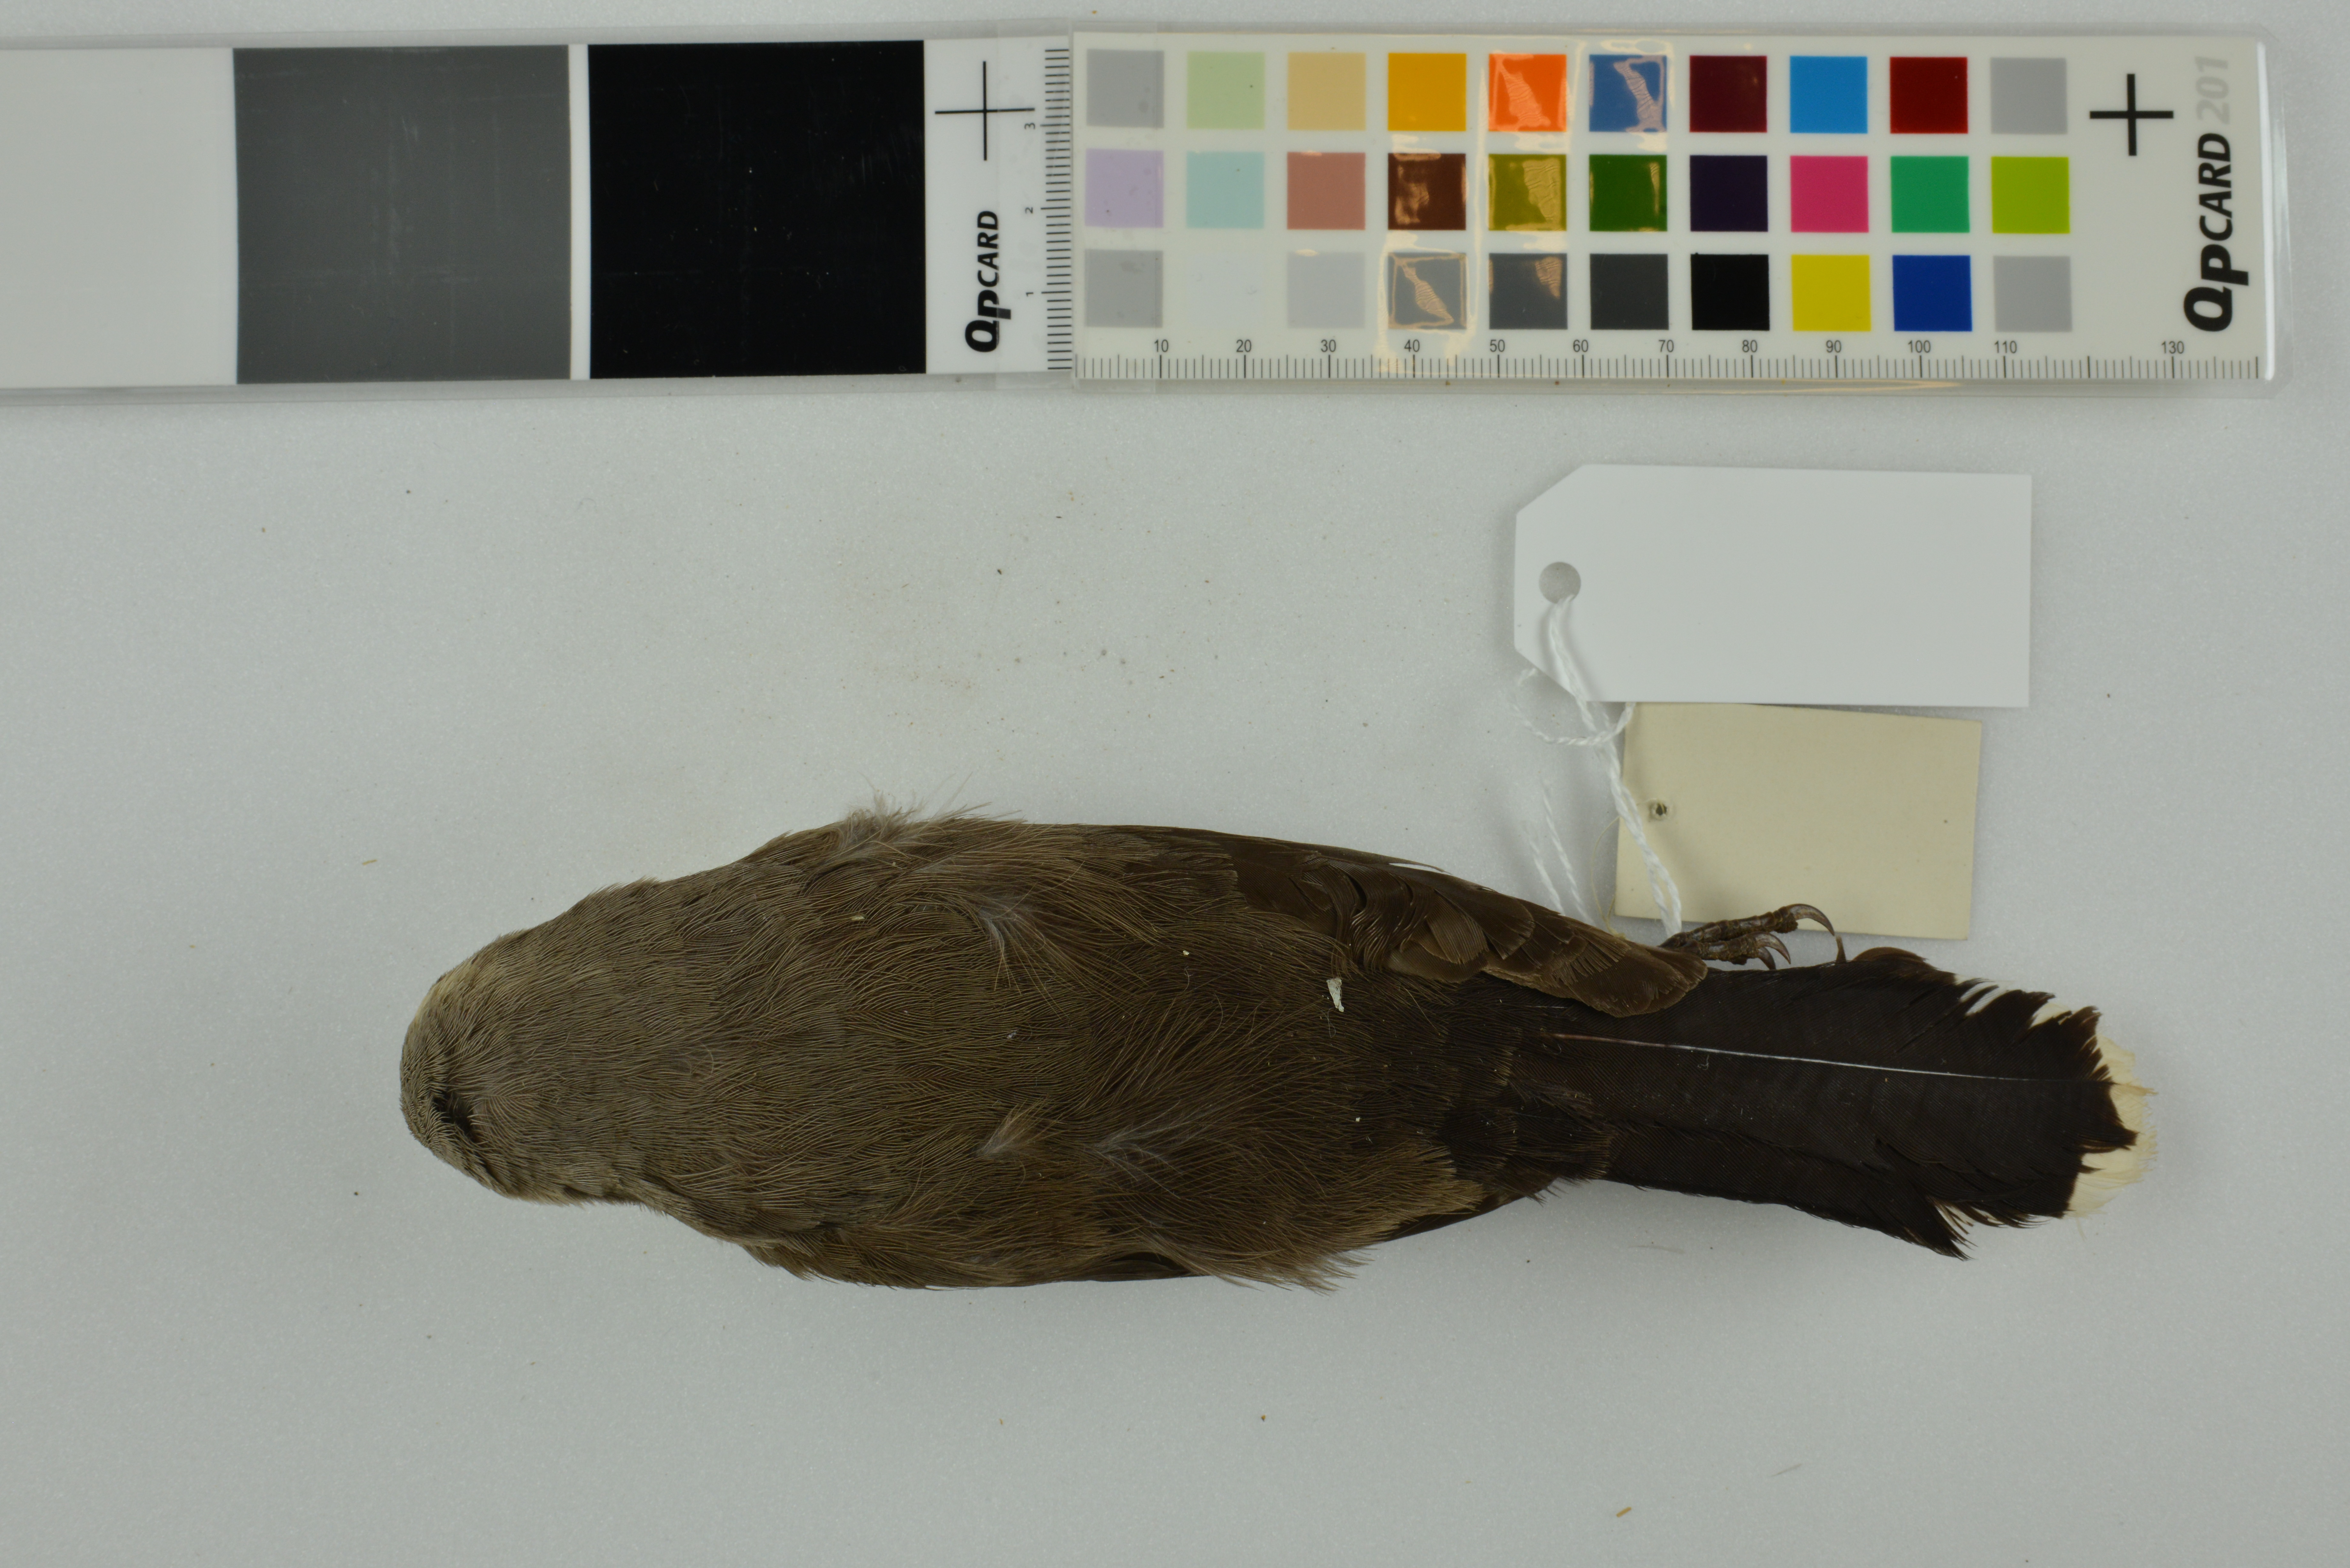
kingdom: Animalia
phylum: Chordata
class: Aves
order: Passeriformes
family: Pomatostomidae
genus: Pomatostomus
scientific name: Pomatostomus temporalis
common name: Grey-crowned babbler
